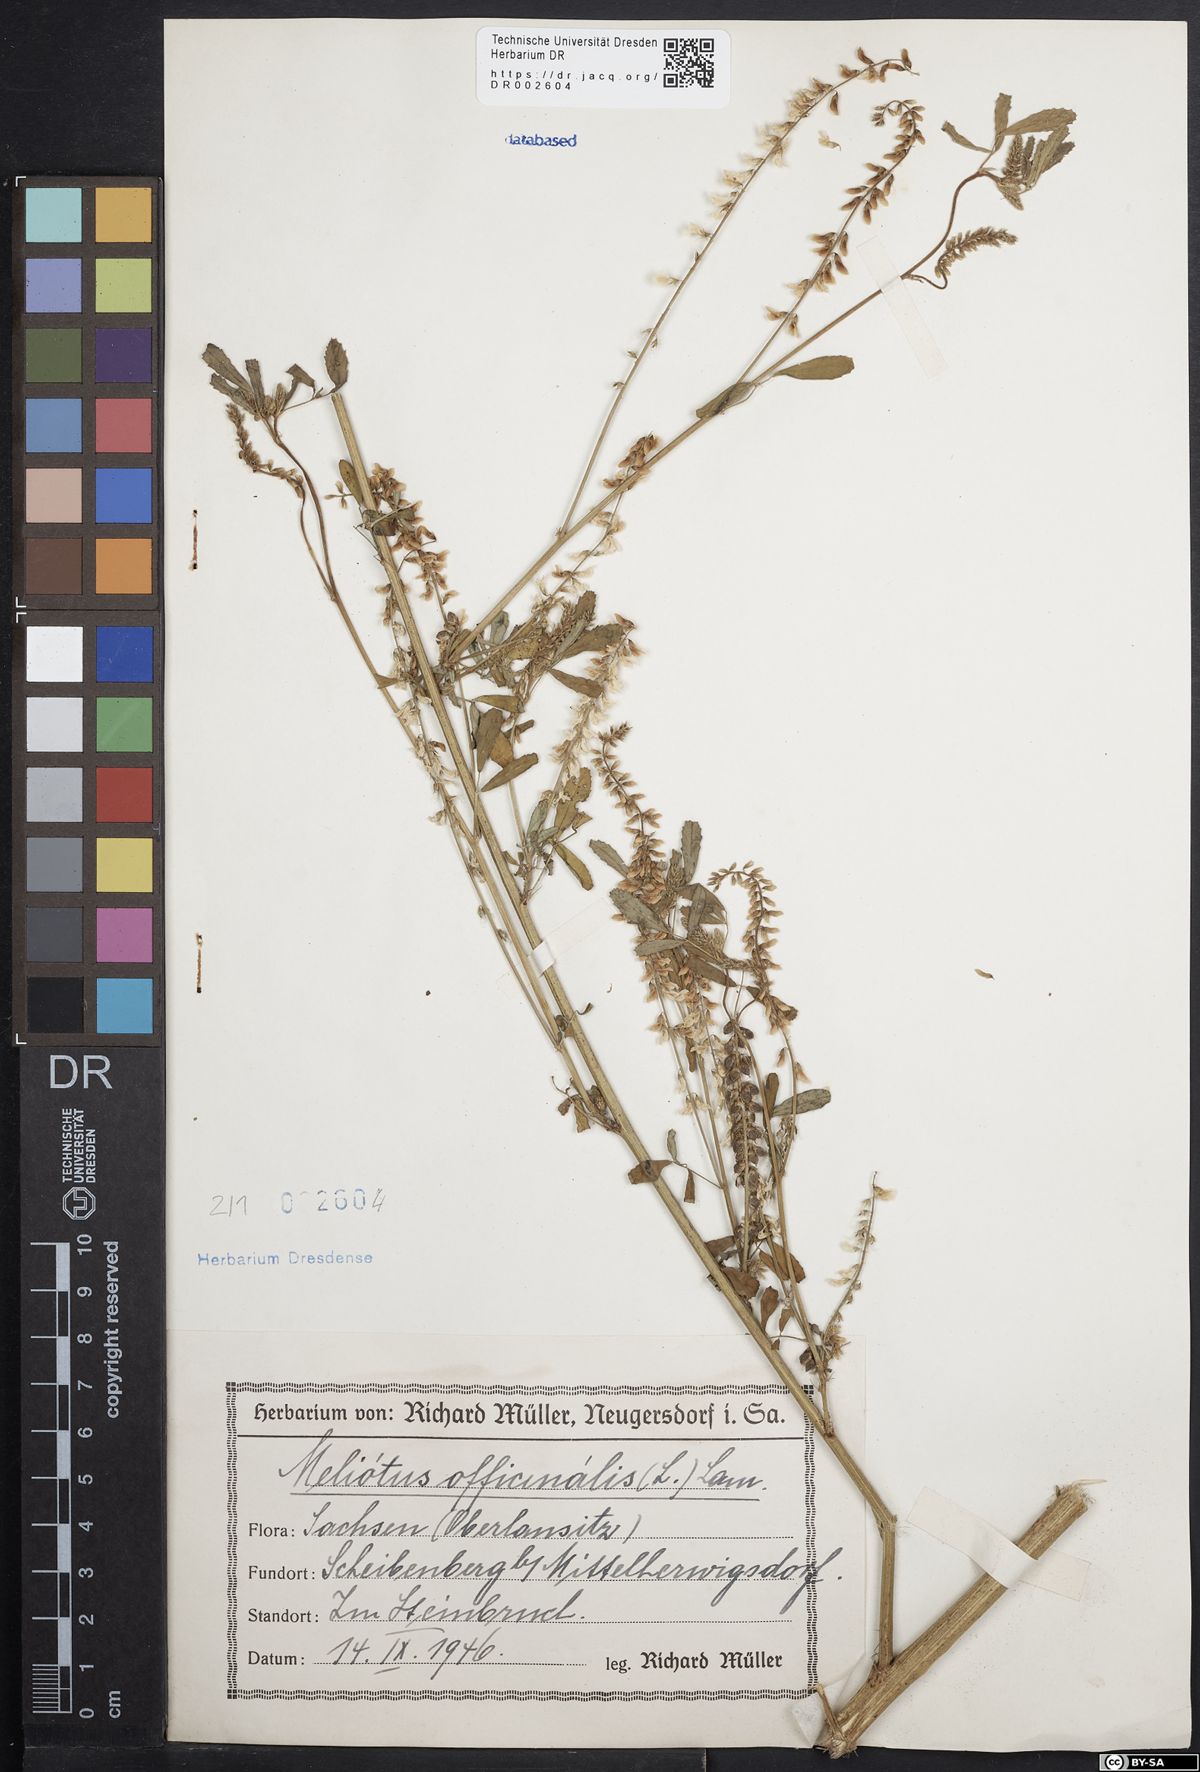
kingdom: Plantae
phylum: Tracheophyta
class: Magnoliopsida
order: Fabales
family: Fabaceae
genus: Melilotus
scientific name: Melilotus officinalis
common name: Sweetclover
